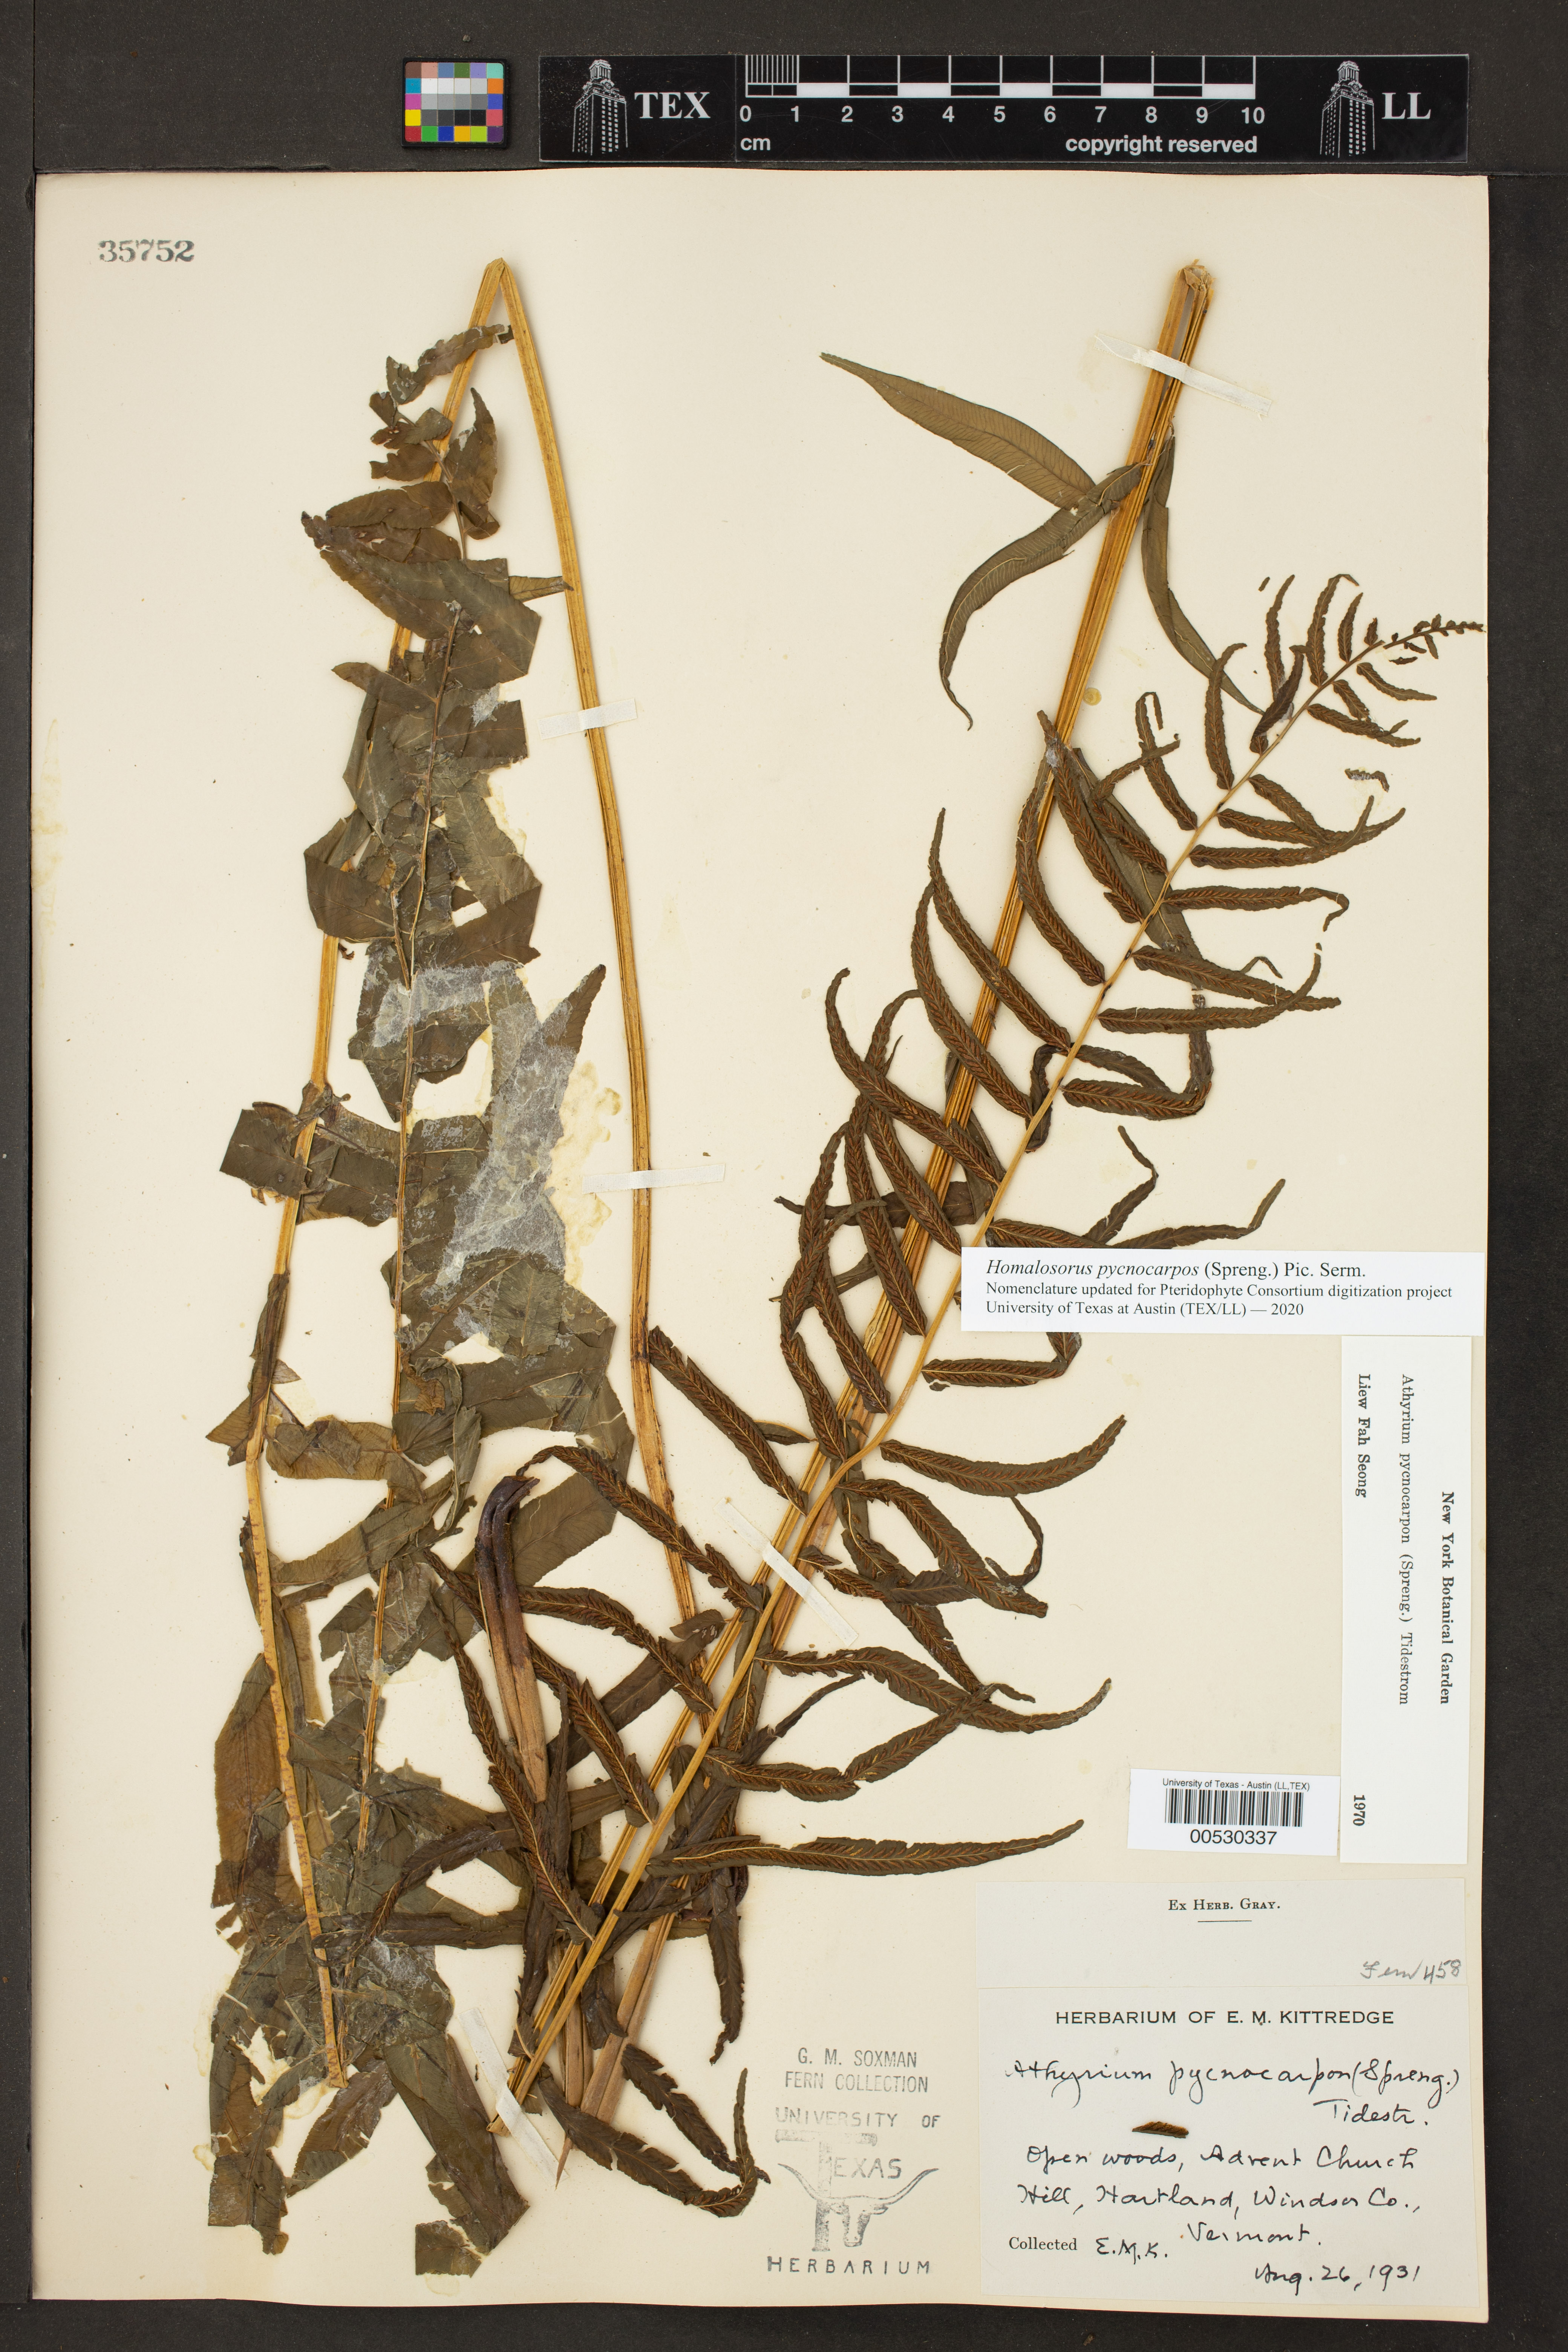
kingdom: Plantae
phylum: Tracheophyta
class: Polypodiopsida
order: Polypodiales
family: Diplaziopsidaceae
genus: Homalosorus
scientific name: Homalosorus pycnocarpos
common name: Glade fern
